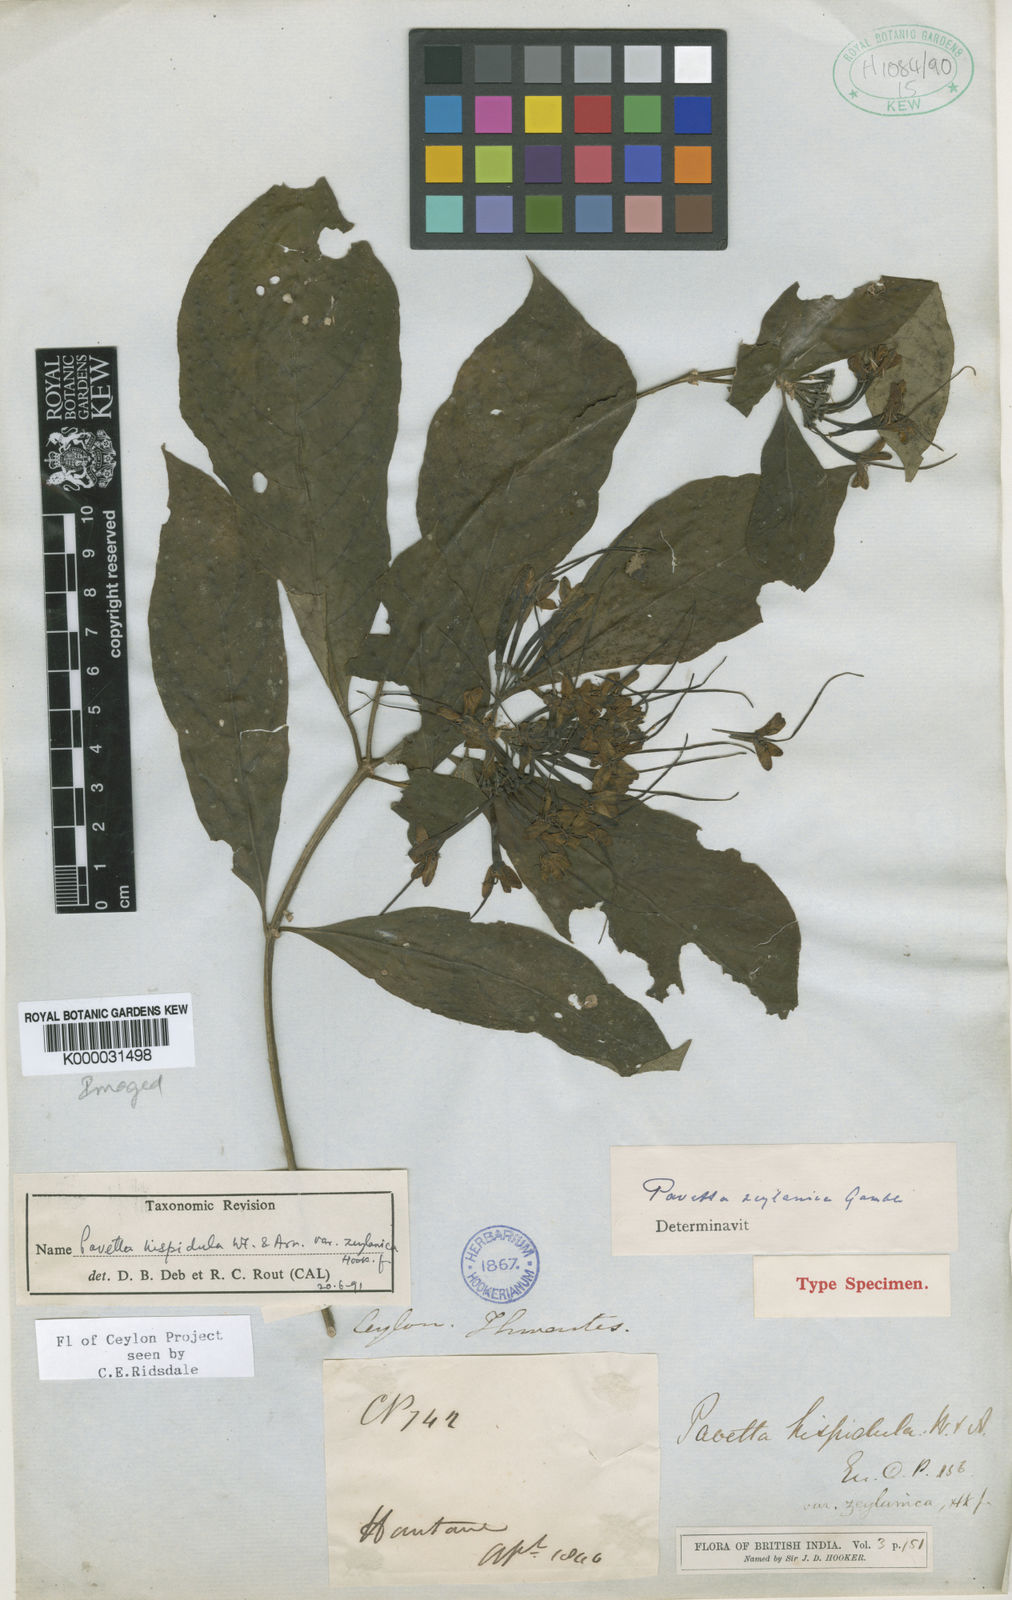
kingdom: Plantae
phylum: Tracheophyta
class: Magnoliopsida
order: Gentianales
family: Rubiaceae
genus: Pavetta
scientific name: Pavetta zeylanica
